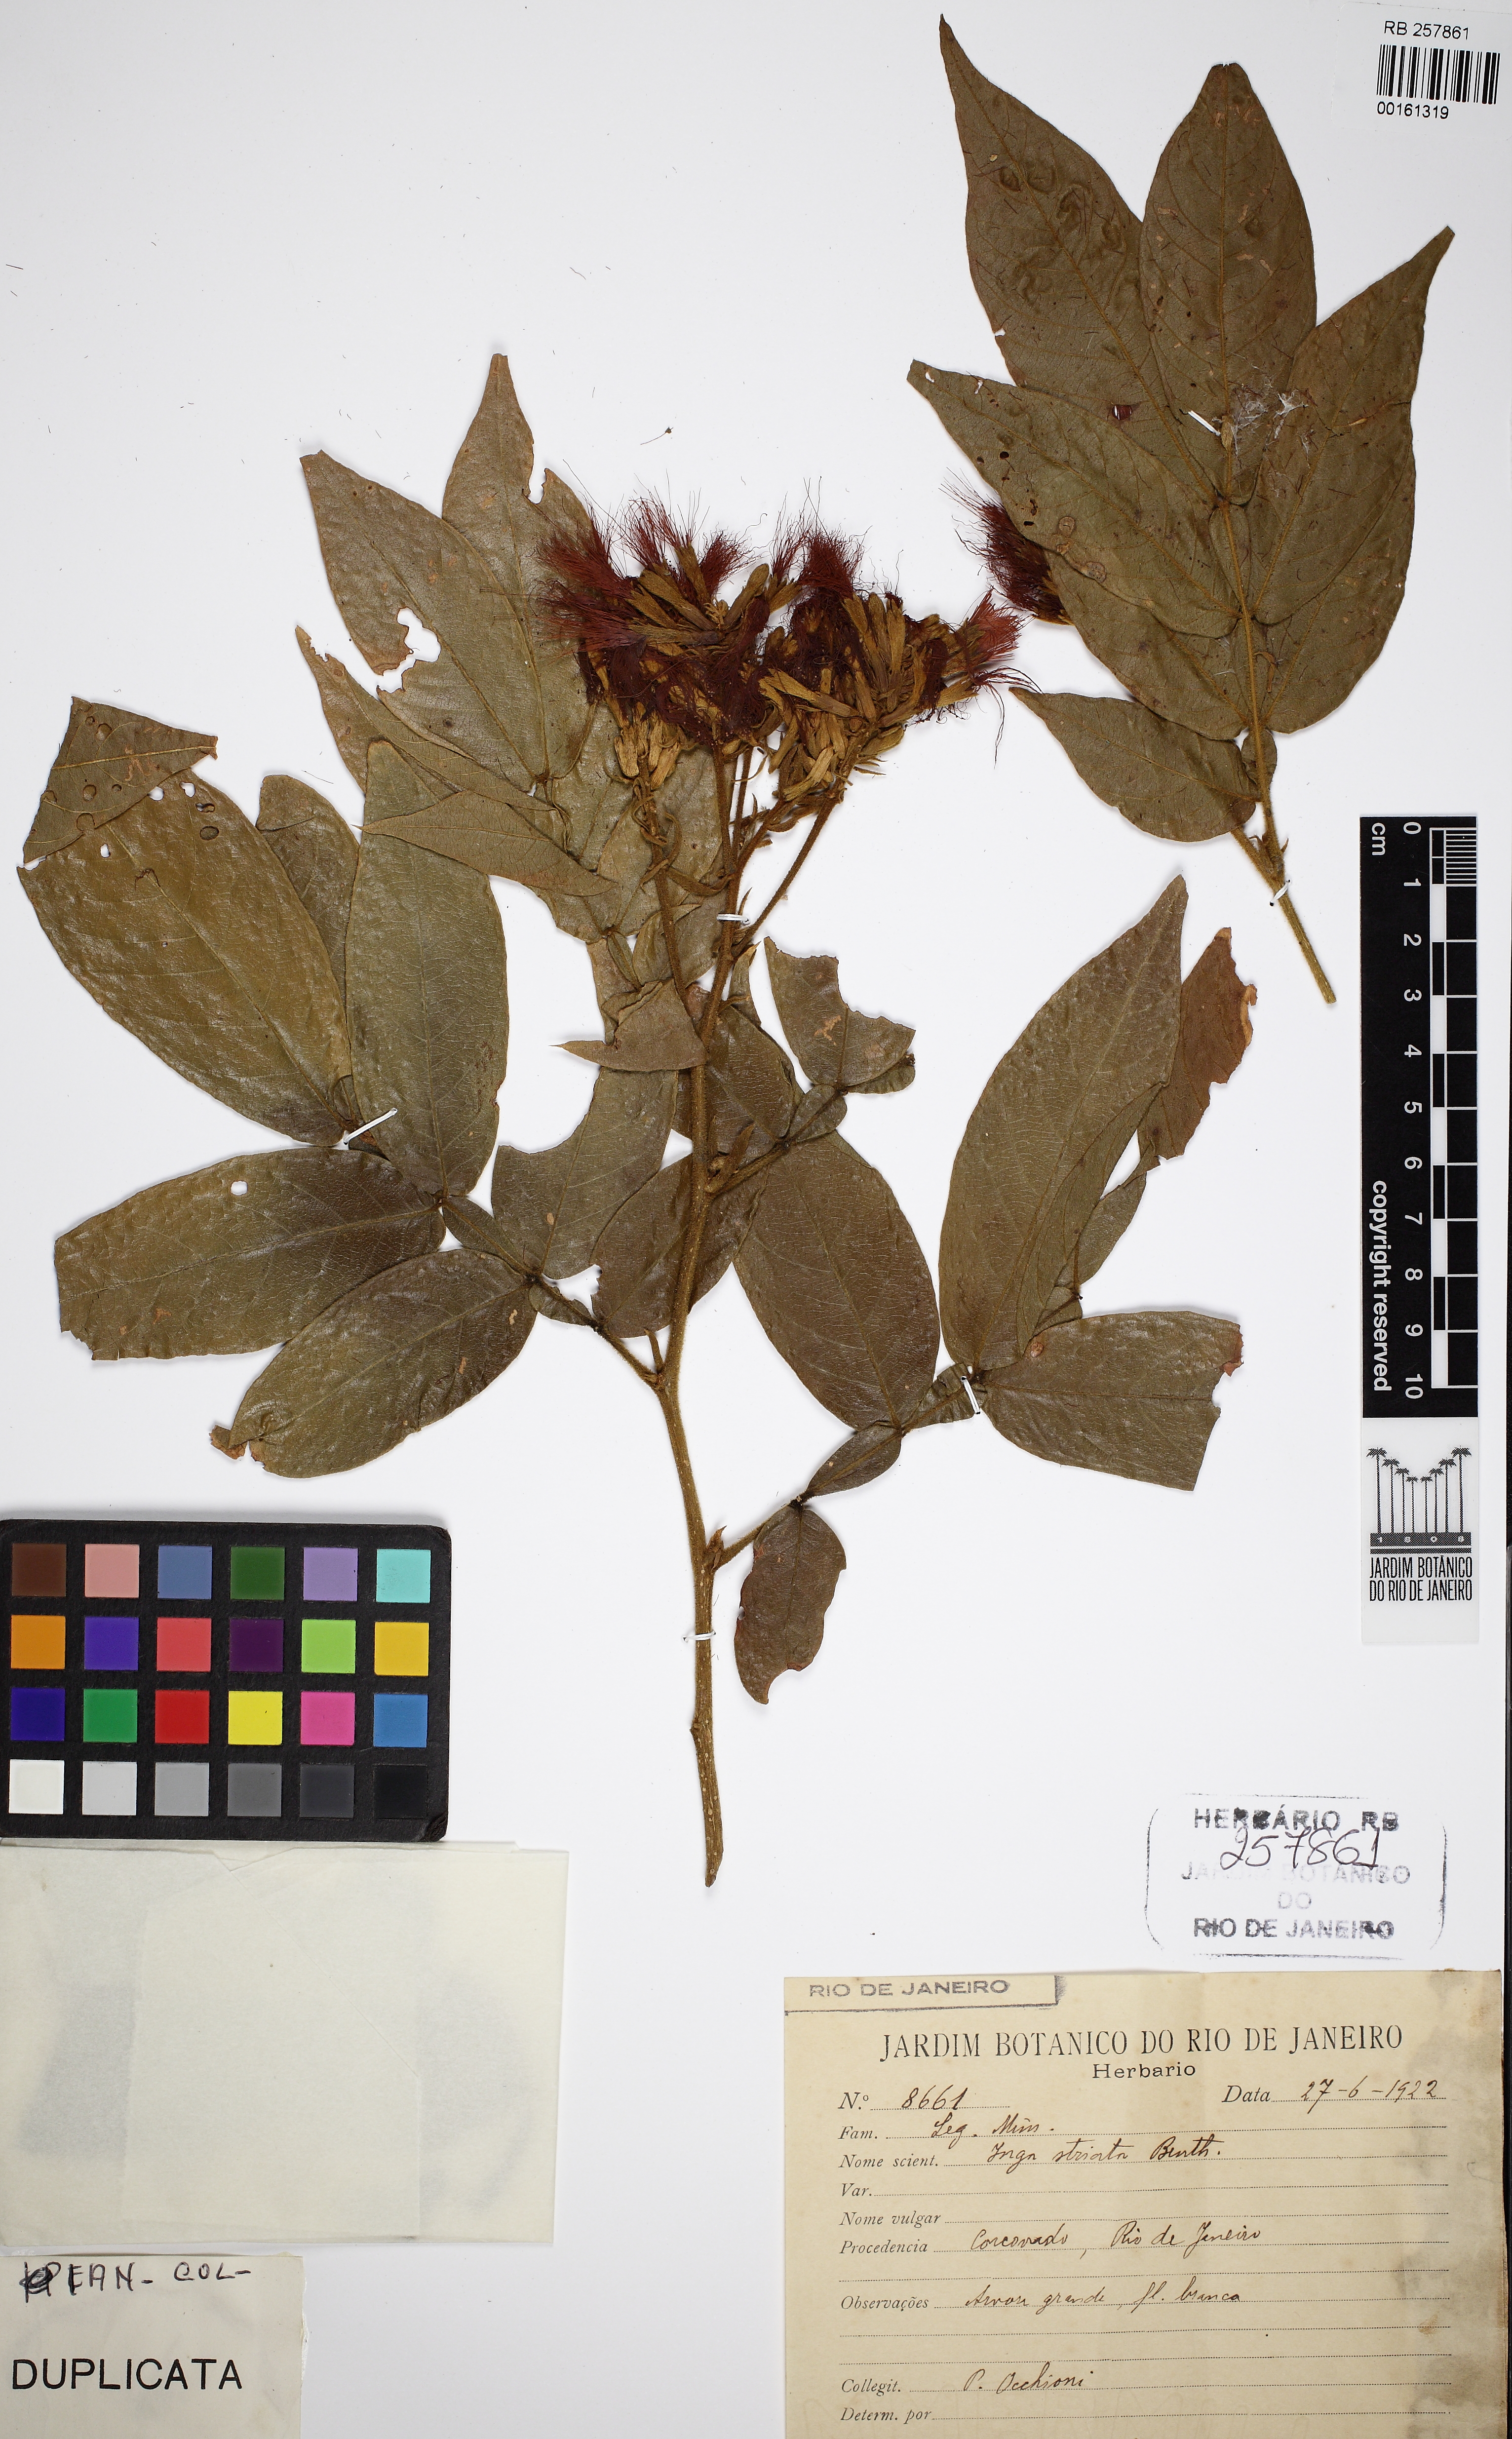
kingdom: Plantae
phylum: Tracheophyta
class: Magnoliopsida
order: Fabales
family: Fabaceae
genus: Inga
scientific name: Inga striata
